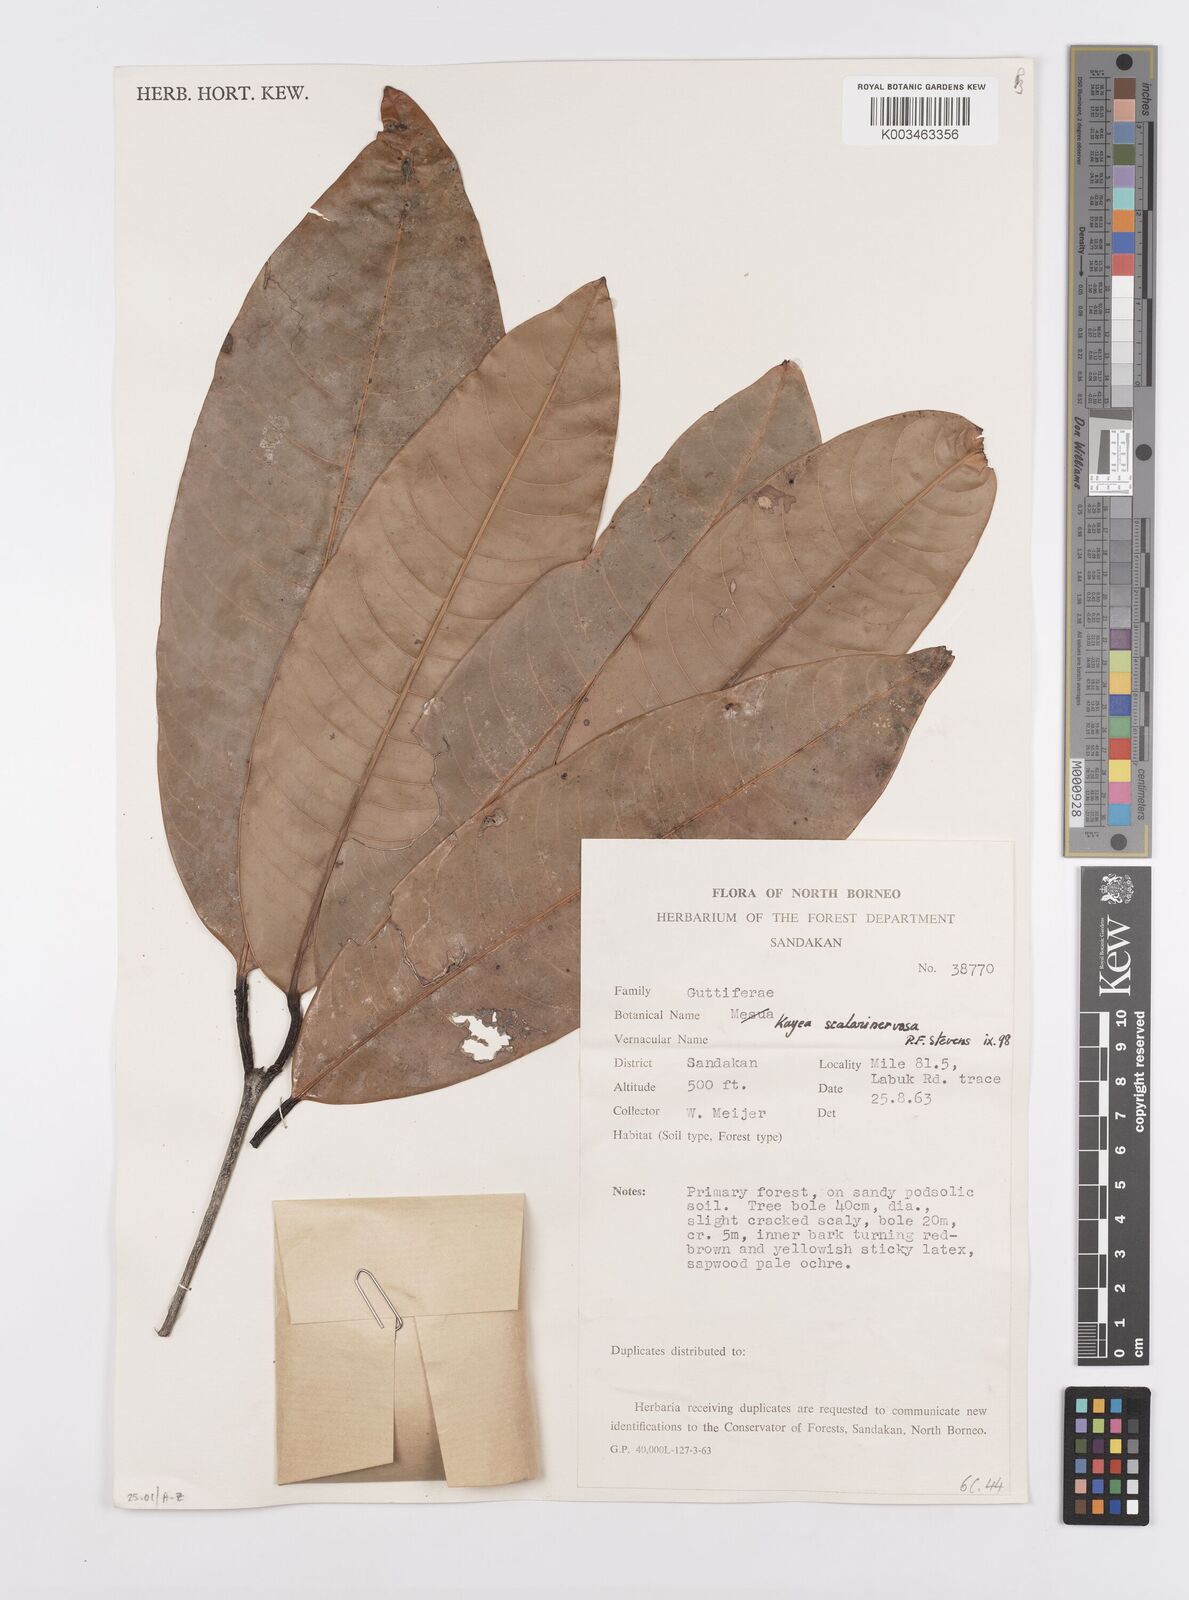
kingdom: Plantae
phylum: Tracheophyta
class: Magnoliopsida
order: Malpighiales
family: Calophyllaceae
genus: Kayea
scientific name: Kayea scalarinervosa
